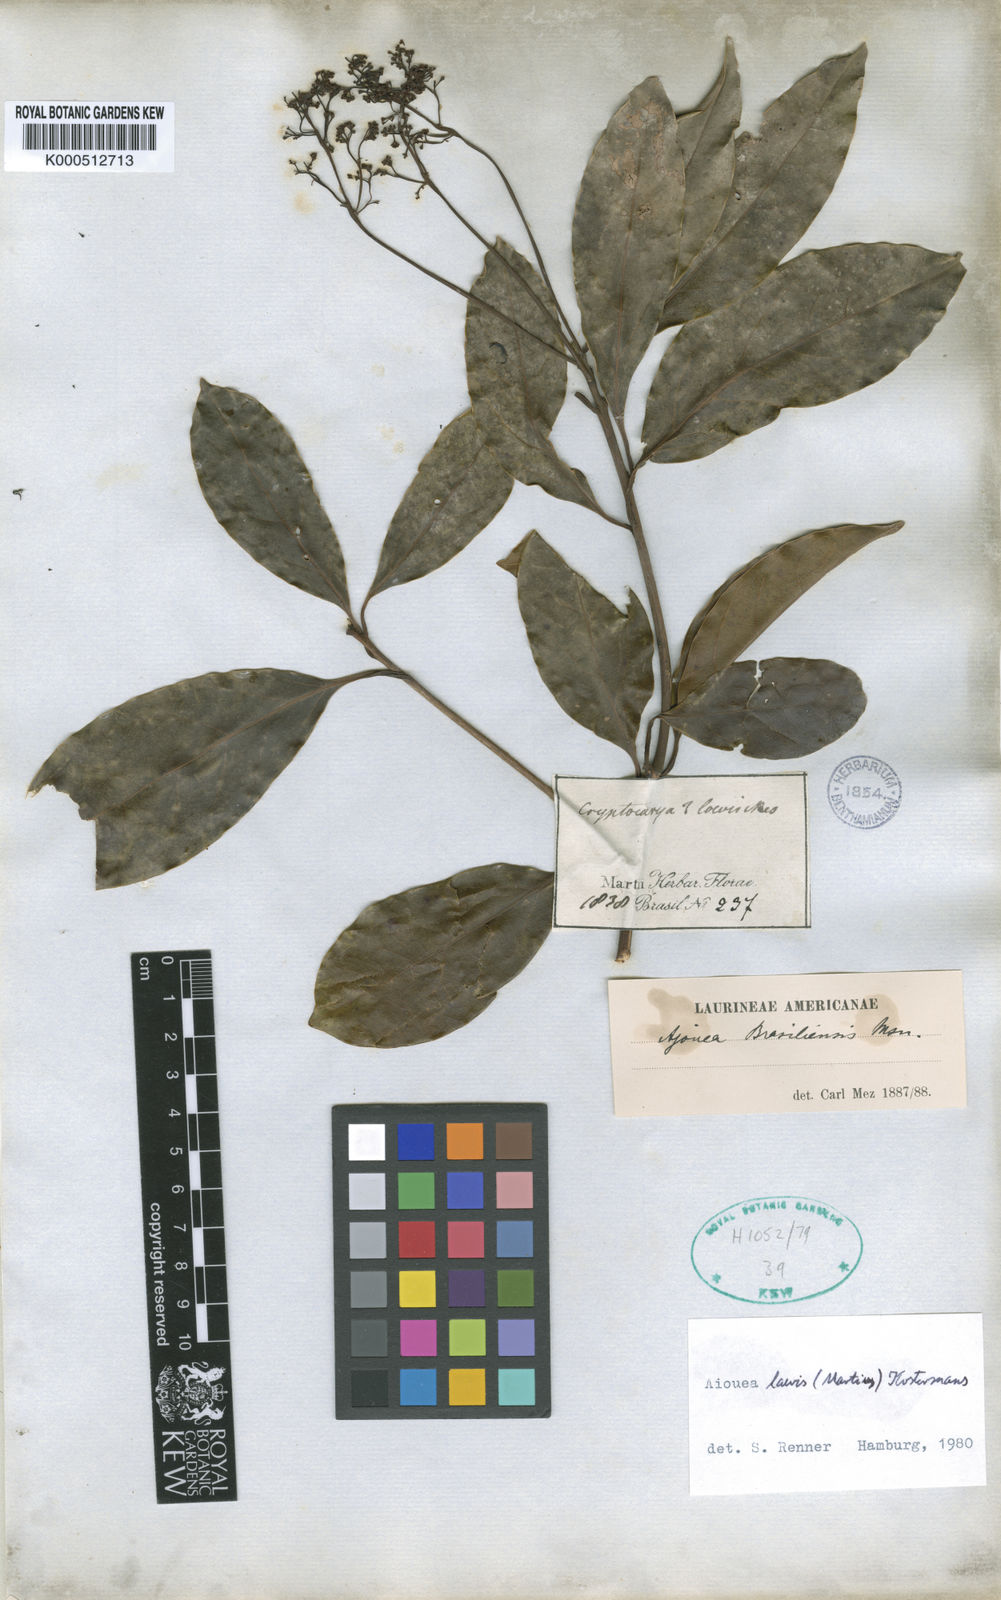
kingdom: Plantae
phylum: Tracheophyta
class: Magnoliopsida
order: Laurales
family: Lauraceae
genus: Aiouea
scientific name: Aiouea laevis
